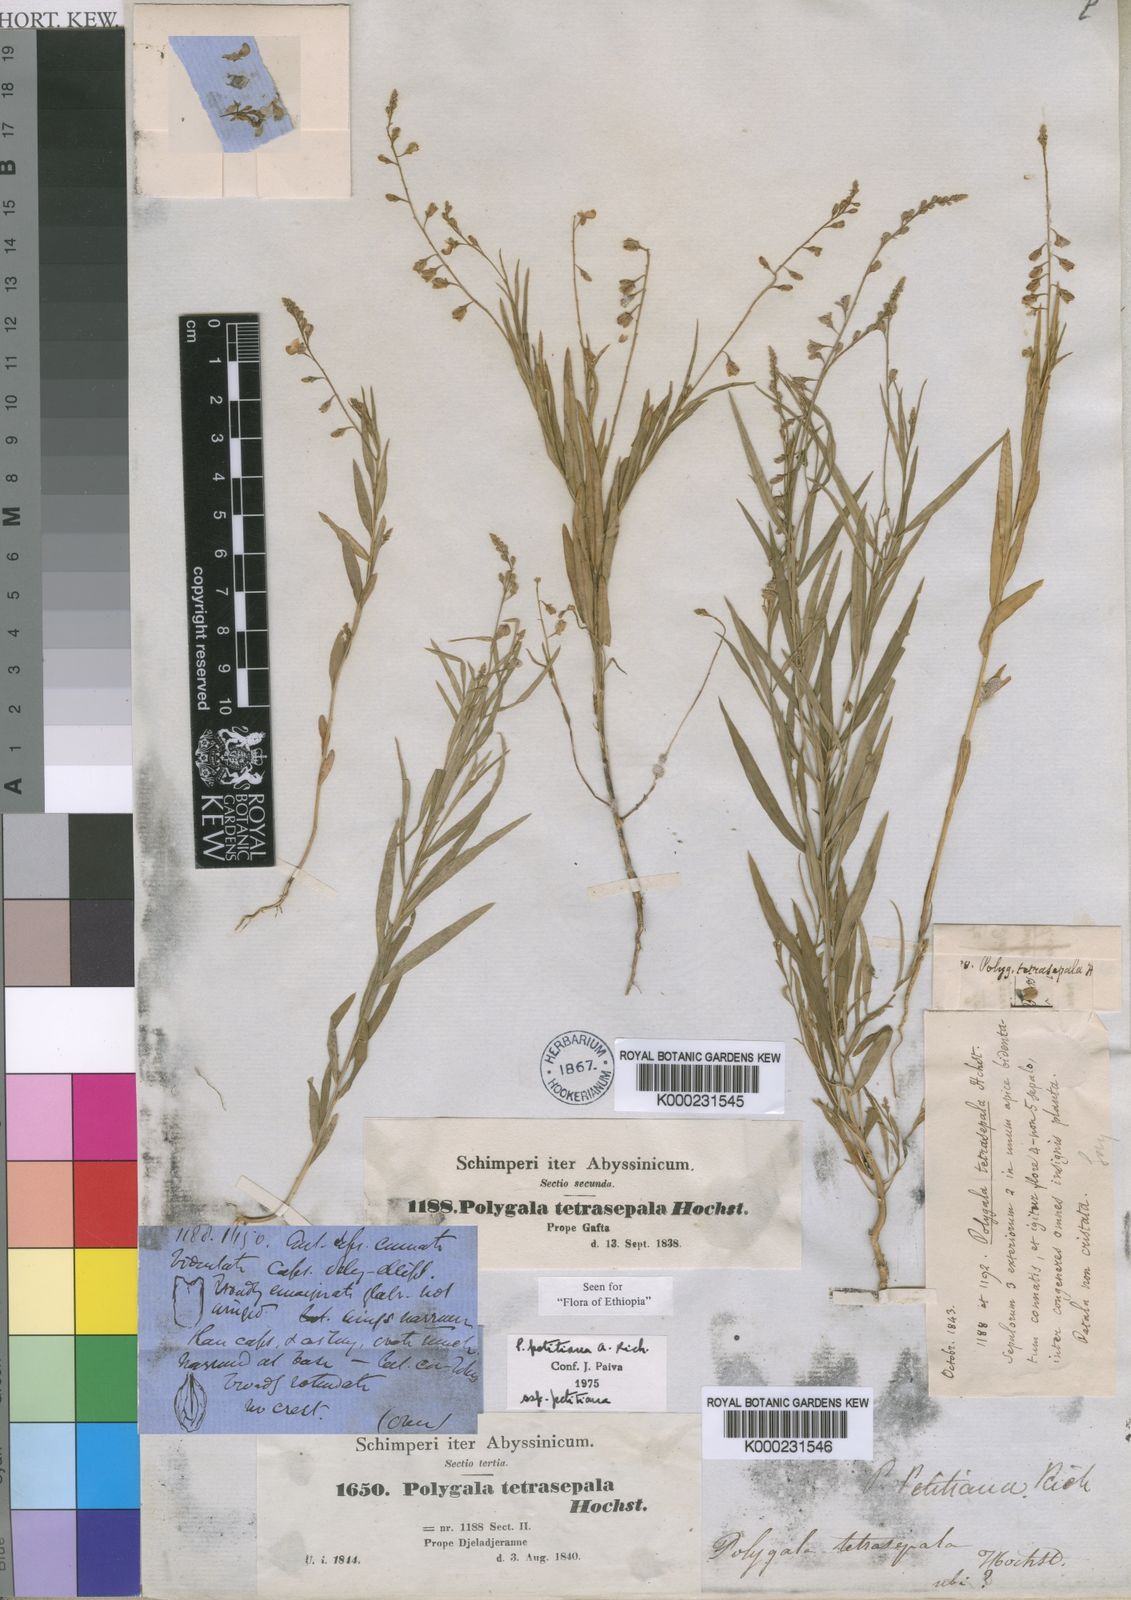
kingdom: Plantae
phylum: Tracheophyta
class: Magnoliopsida
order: Fabales
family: Polygalaceae
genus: Polygala
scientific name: Polygala petitiana
